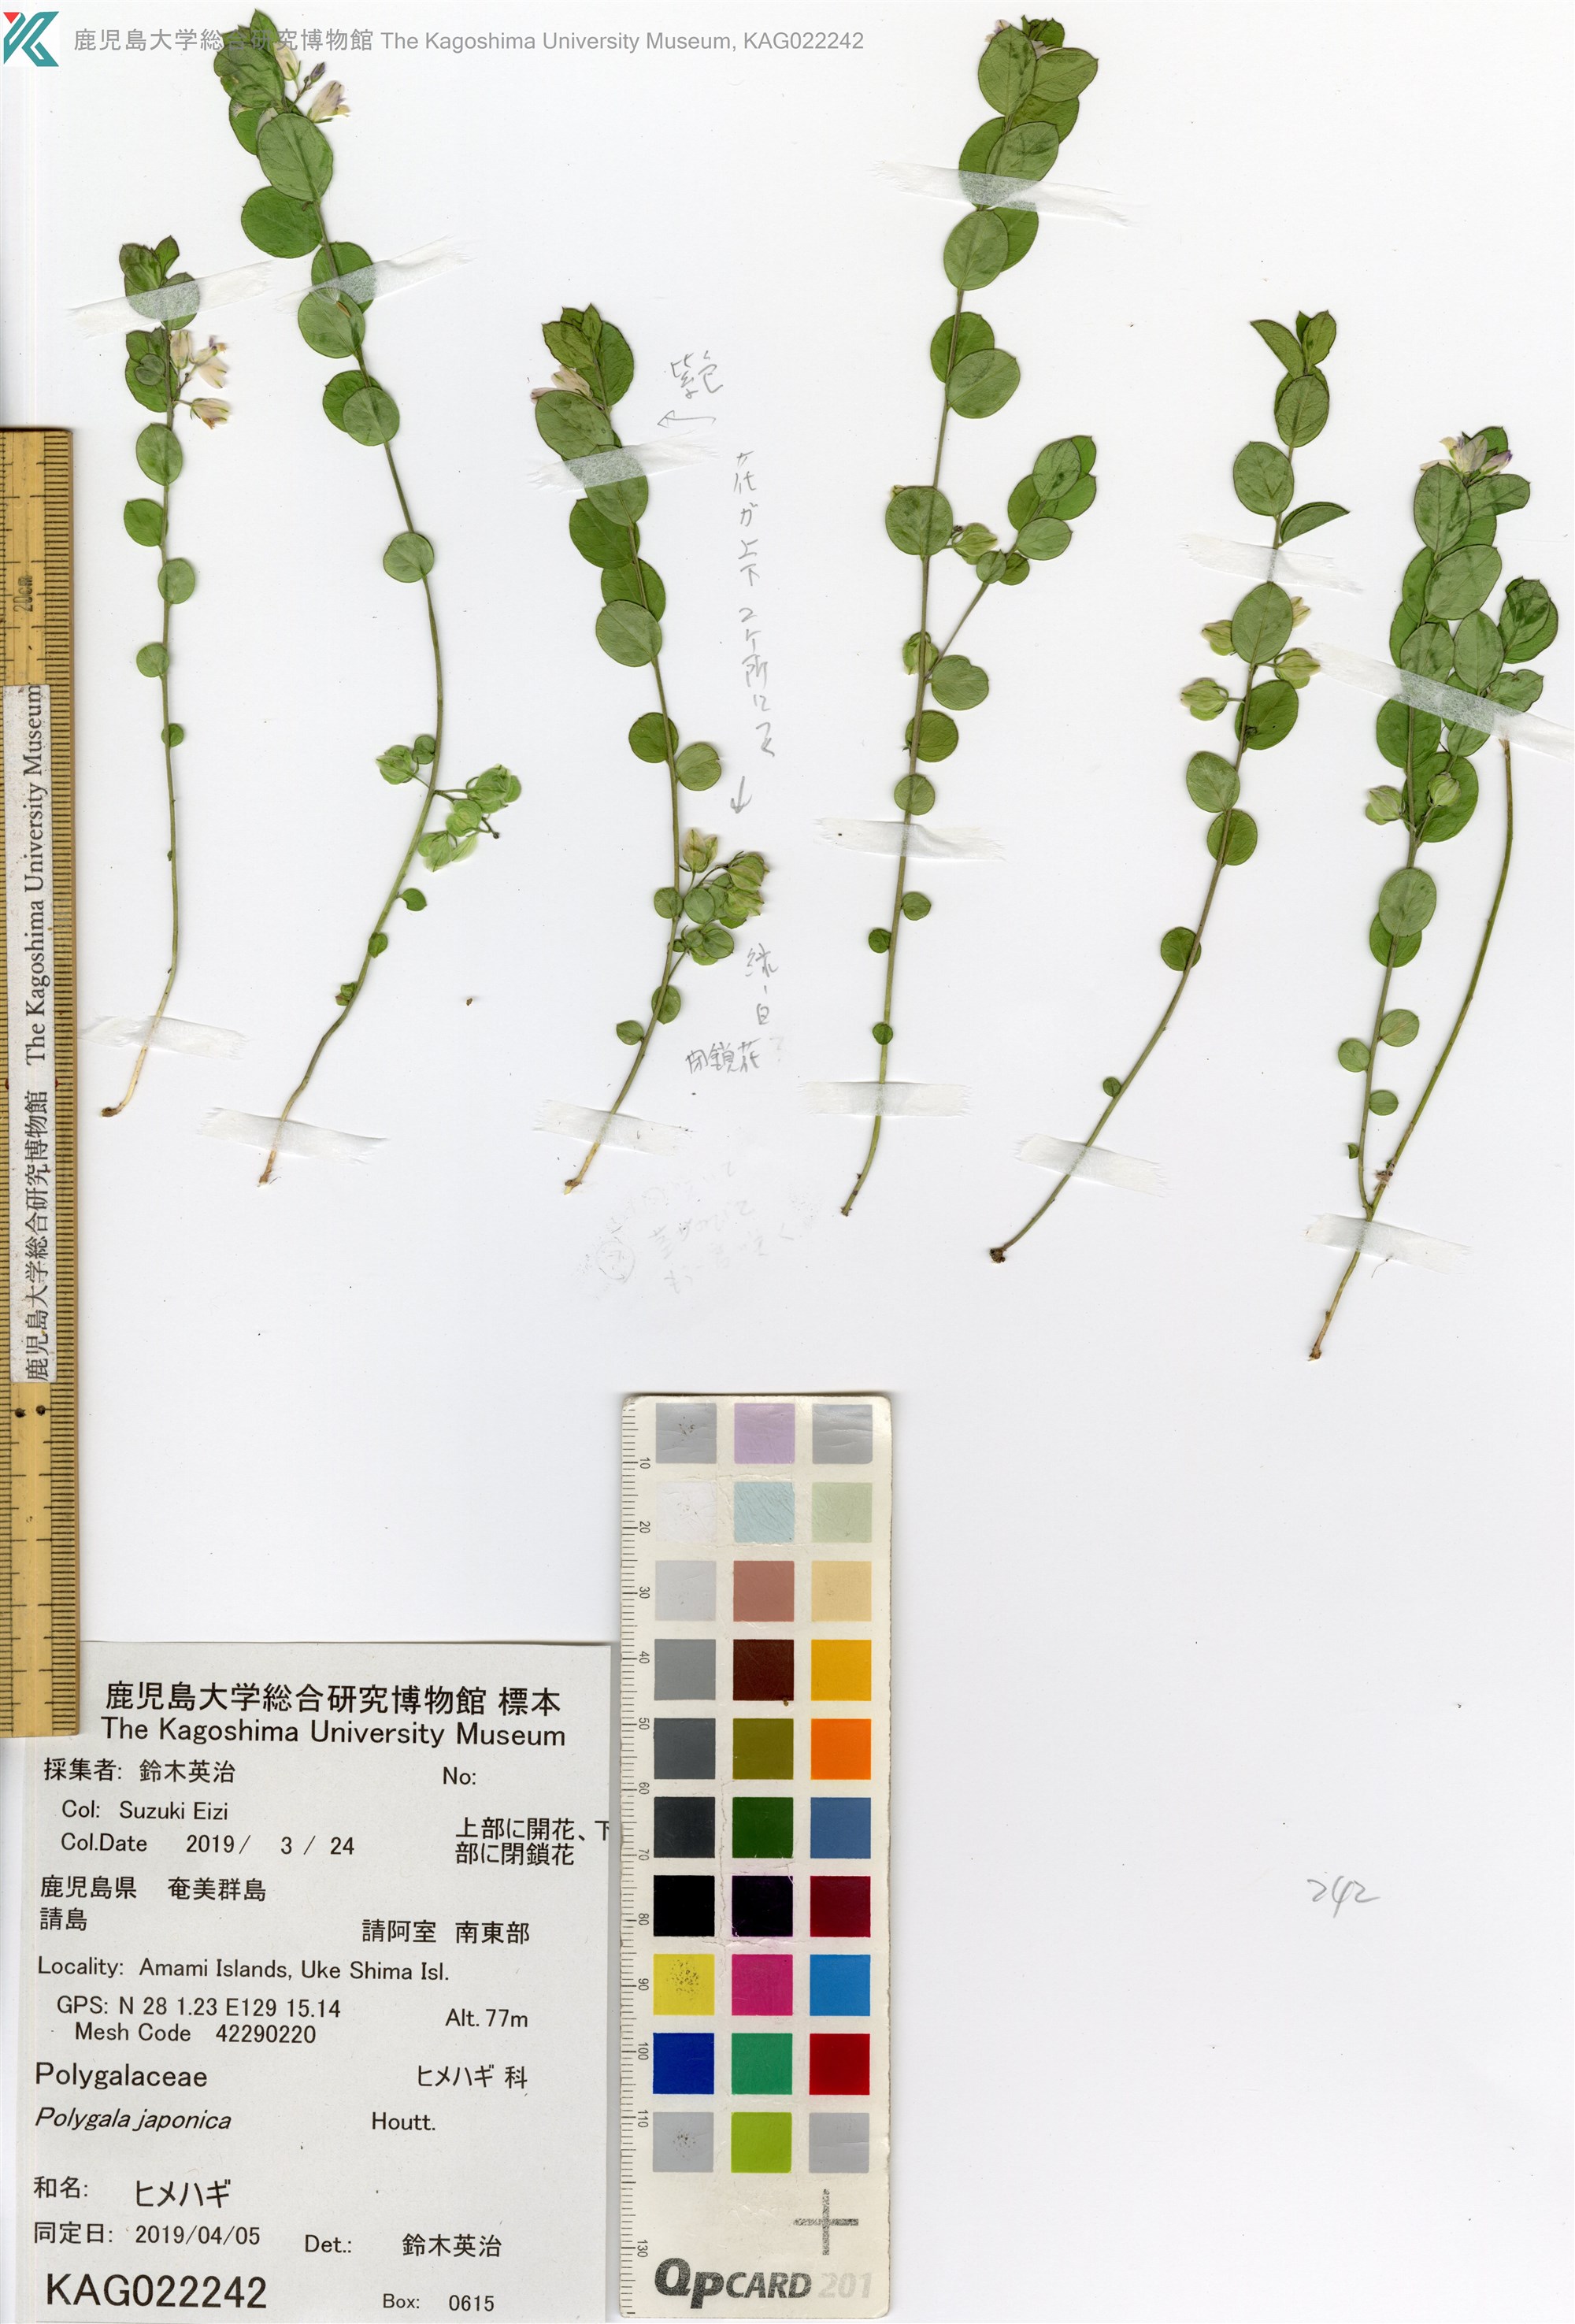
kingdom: Plantae
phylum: Tracheophyta
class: Magnoliopsida
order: Fabales
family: Polygalaceae
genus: Polygala
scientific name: Polygala japonica
